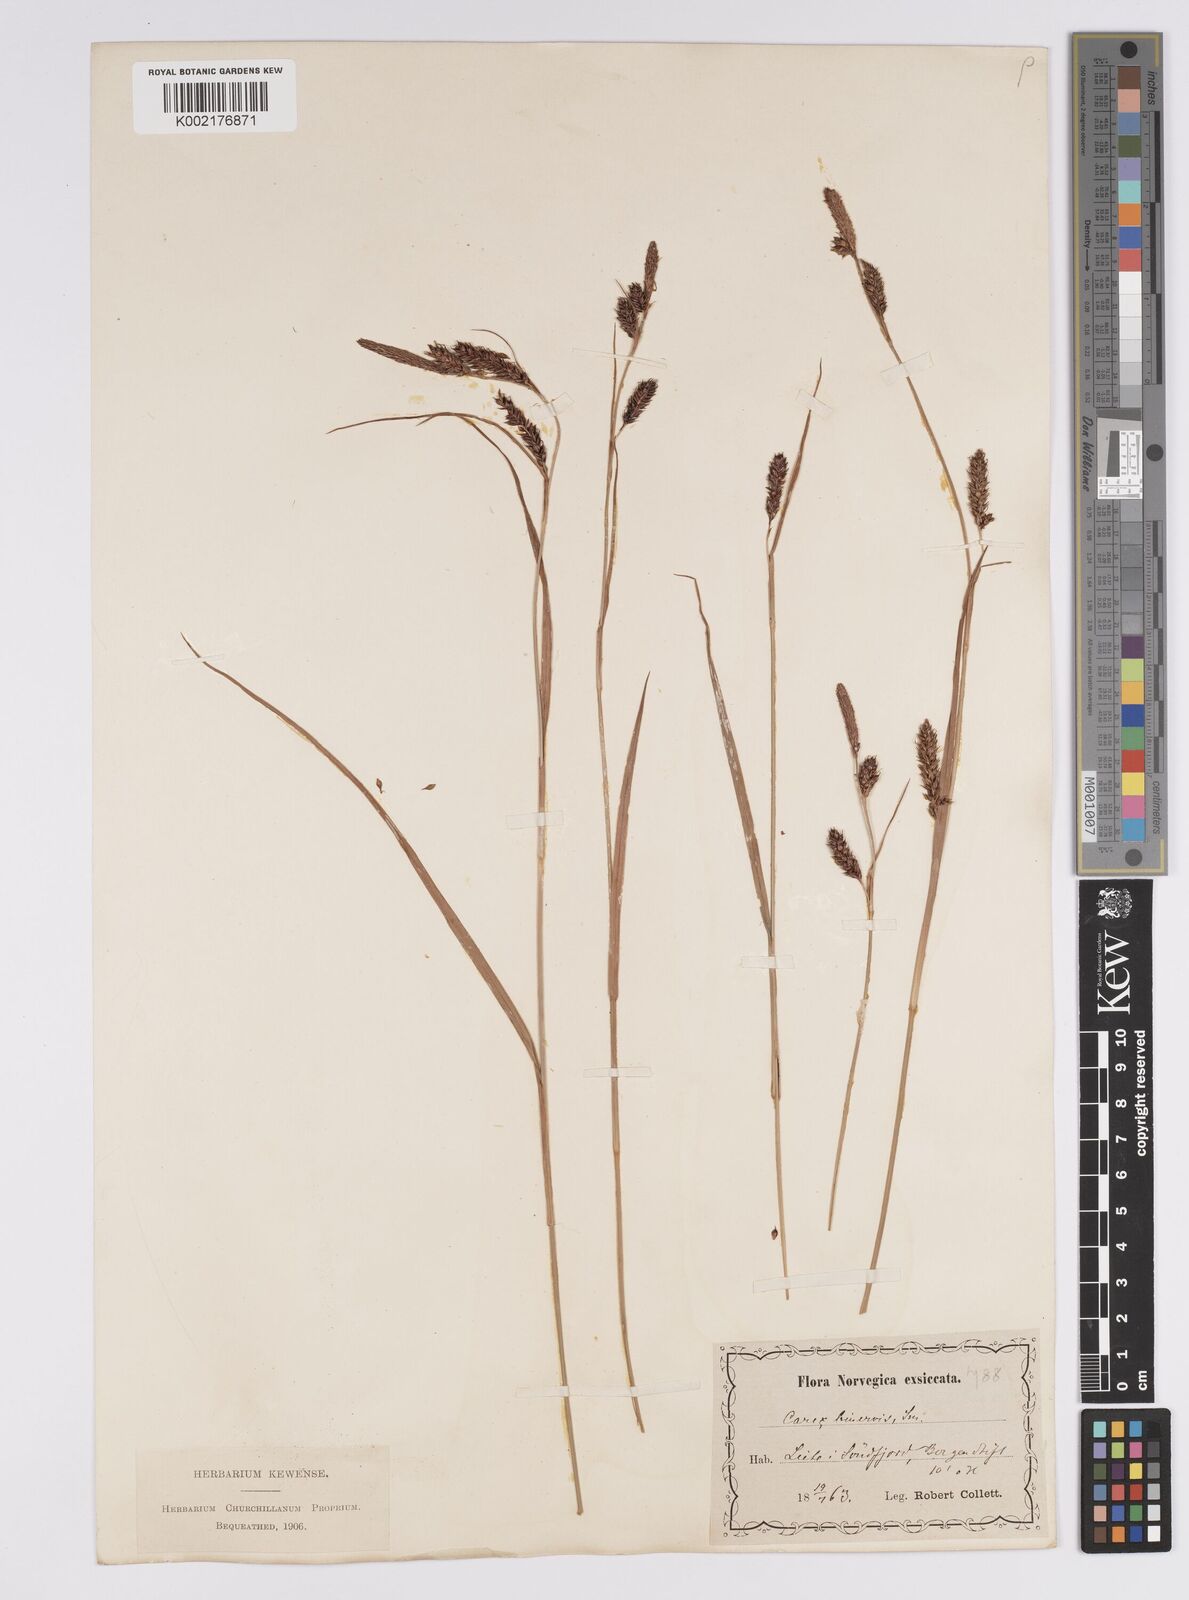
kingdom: Plantae
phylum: Tracheophyta
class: Liliopsida
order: Poales
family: Cyperaceae
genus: Carex
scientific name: Carex binervis
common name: Green-ribbed sedge
